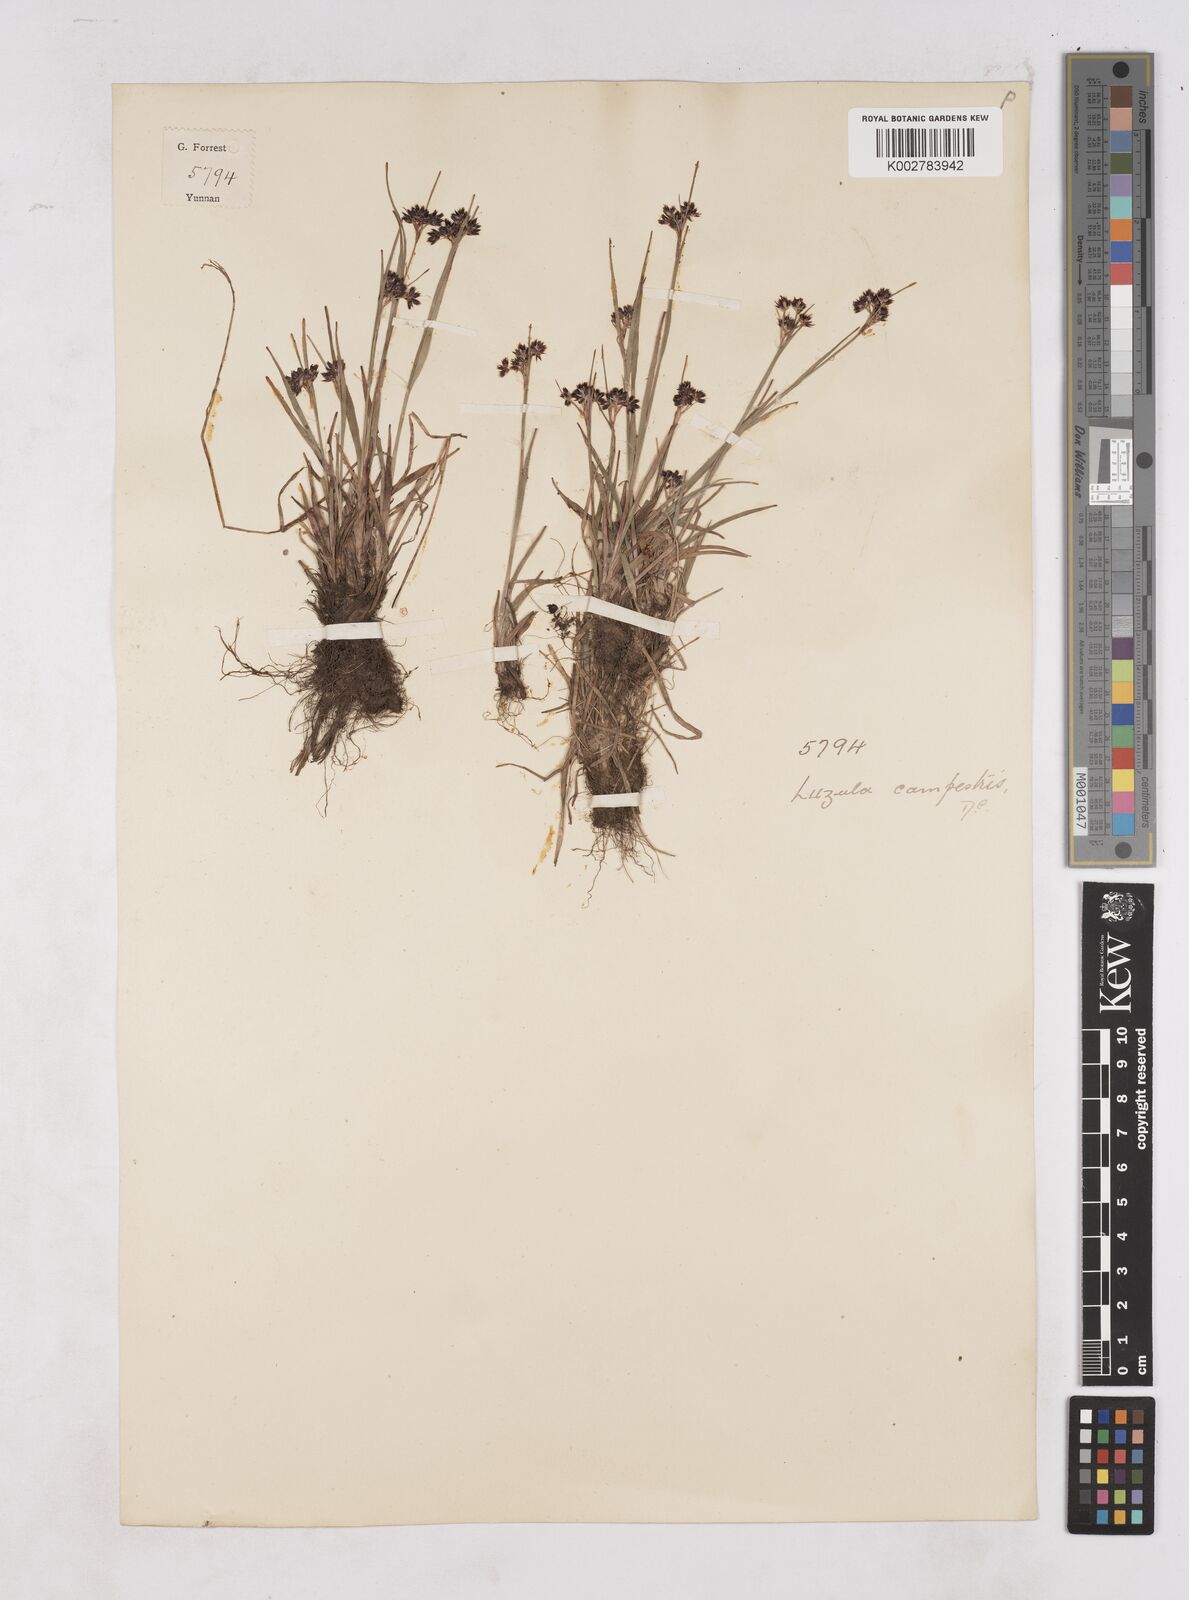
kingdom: Plantae
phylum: Tracheophyta
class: Liliopsida
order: Poales
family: Juncaceae
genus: Luzula
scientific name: Luzula campestris
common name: Field wood-rush
